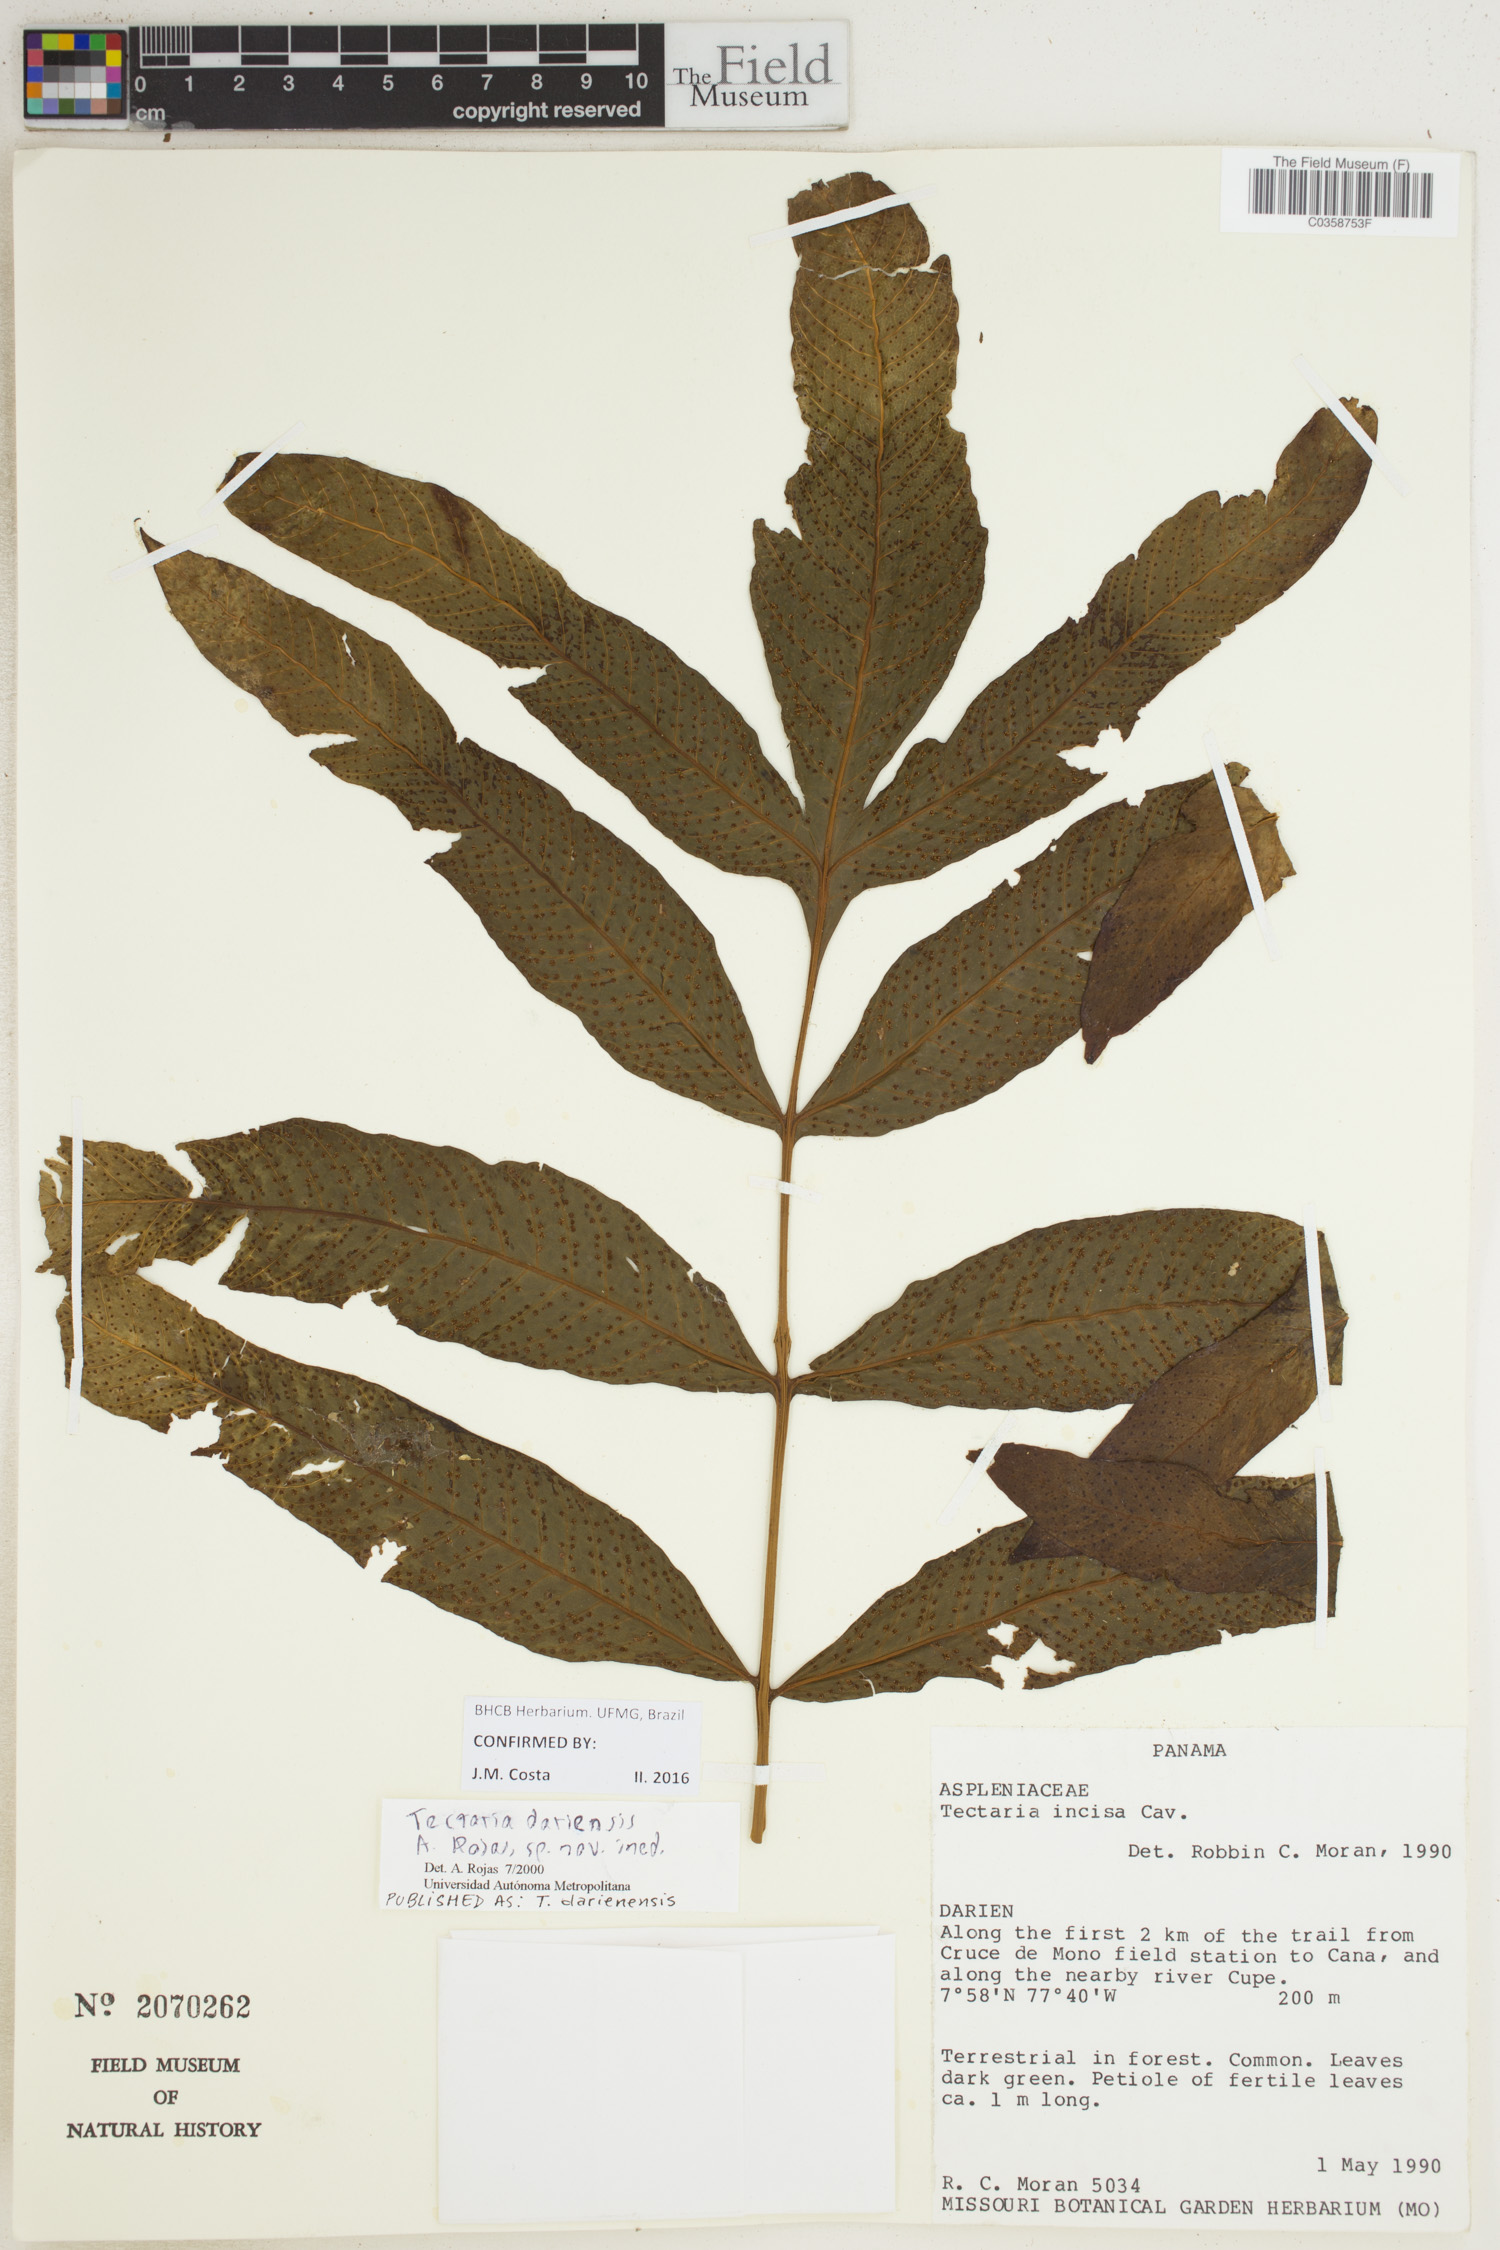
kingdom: Plantae
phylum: Tracheophyta
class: Polypodiopsida
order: Polypodiales
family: Tectariaceae
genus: Tectaria
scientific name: Tectaria darienensis
